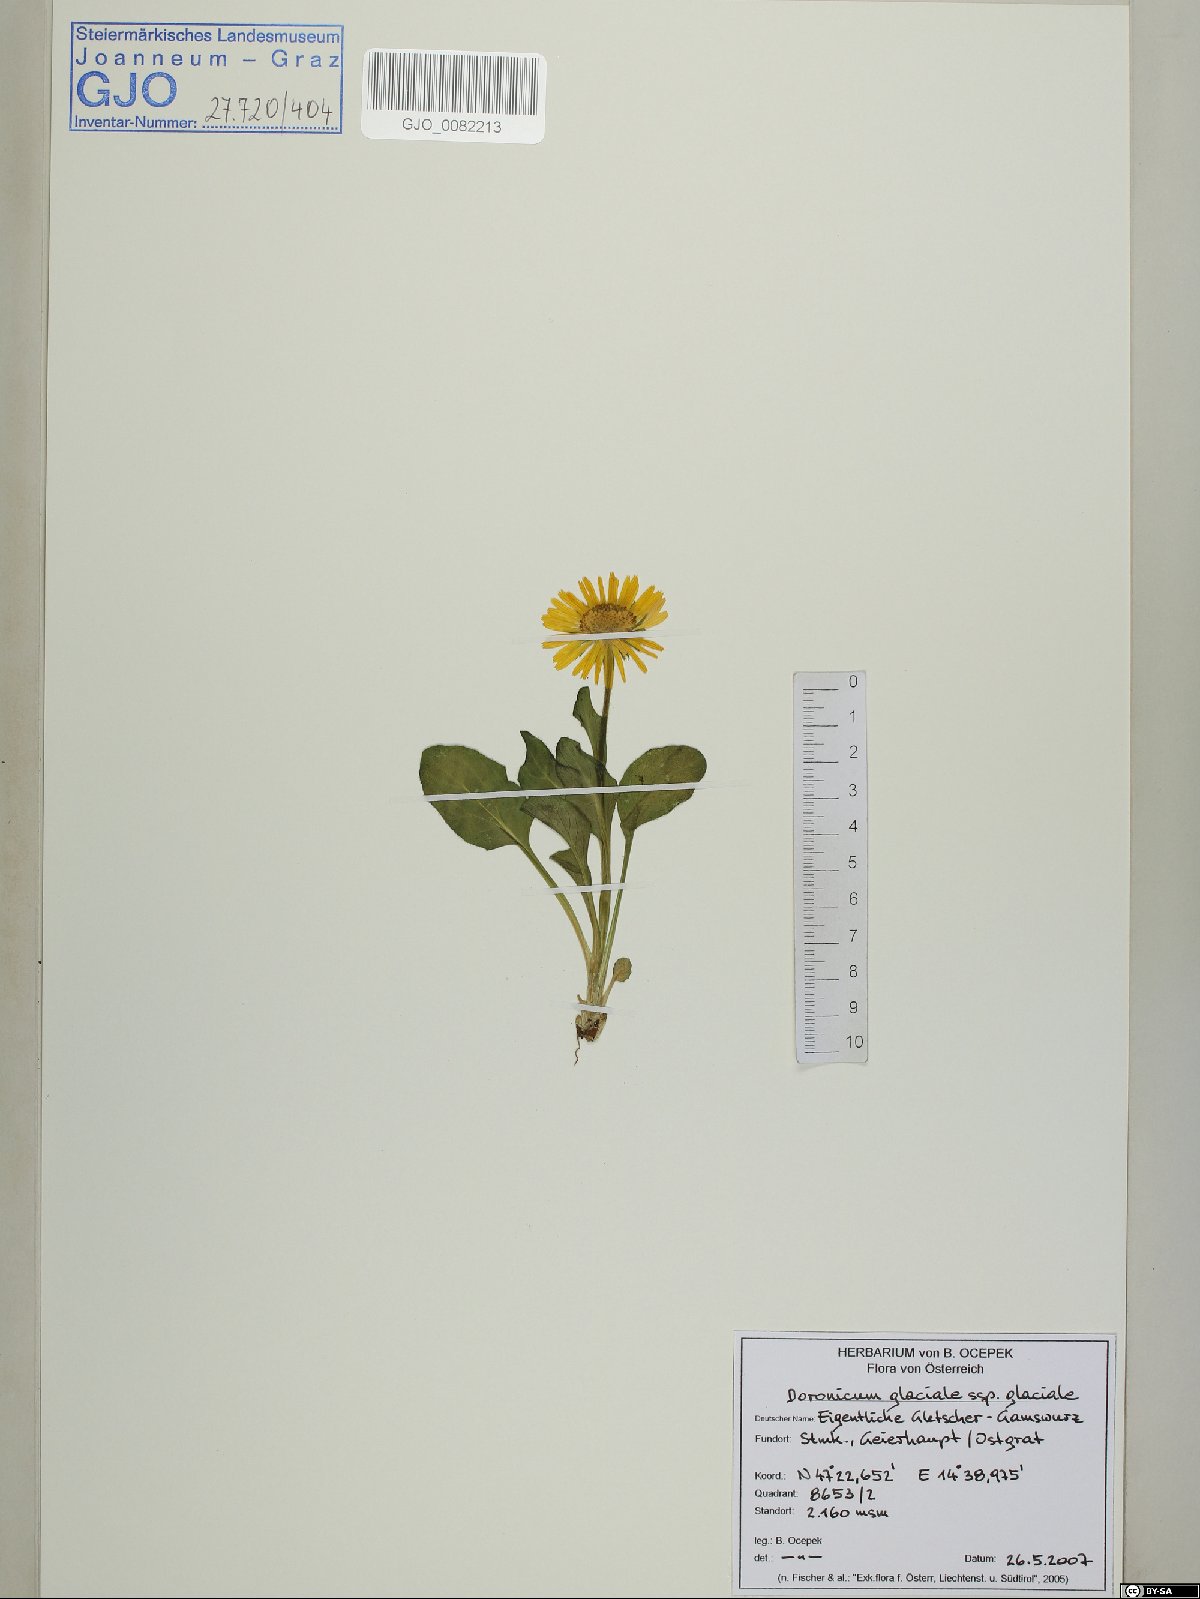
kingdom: Plantae
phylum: Tracheophyta
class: Magnoliopsida
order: Asterales
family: Asteraceae
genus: Doronicum
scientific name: Doronicum glaciale
